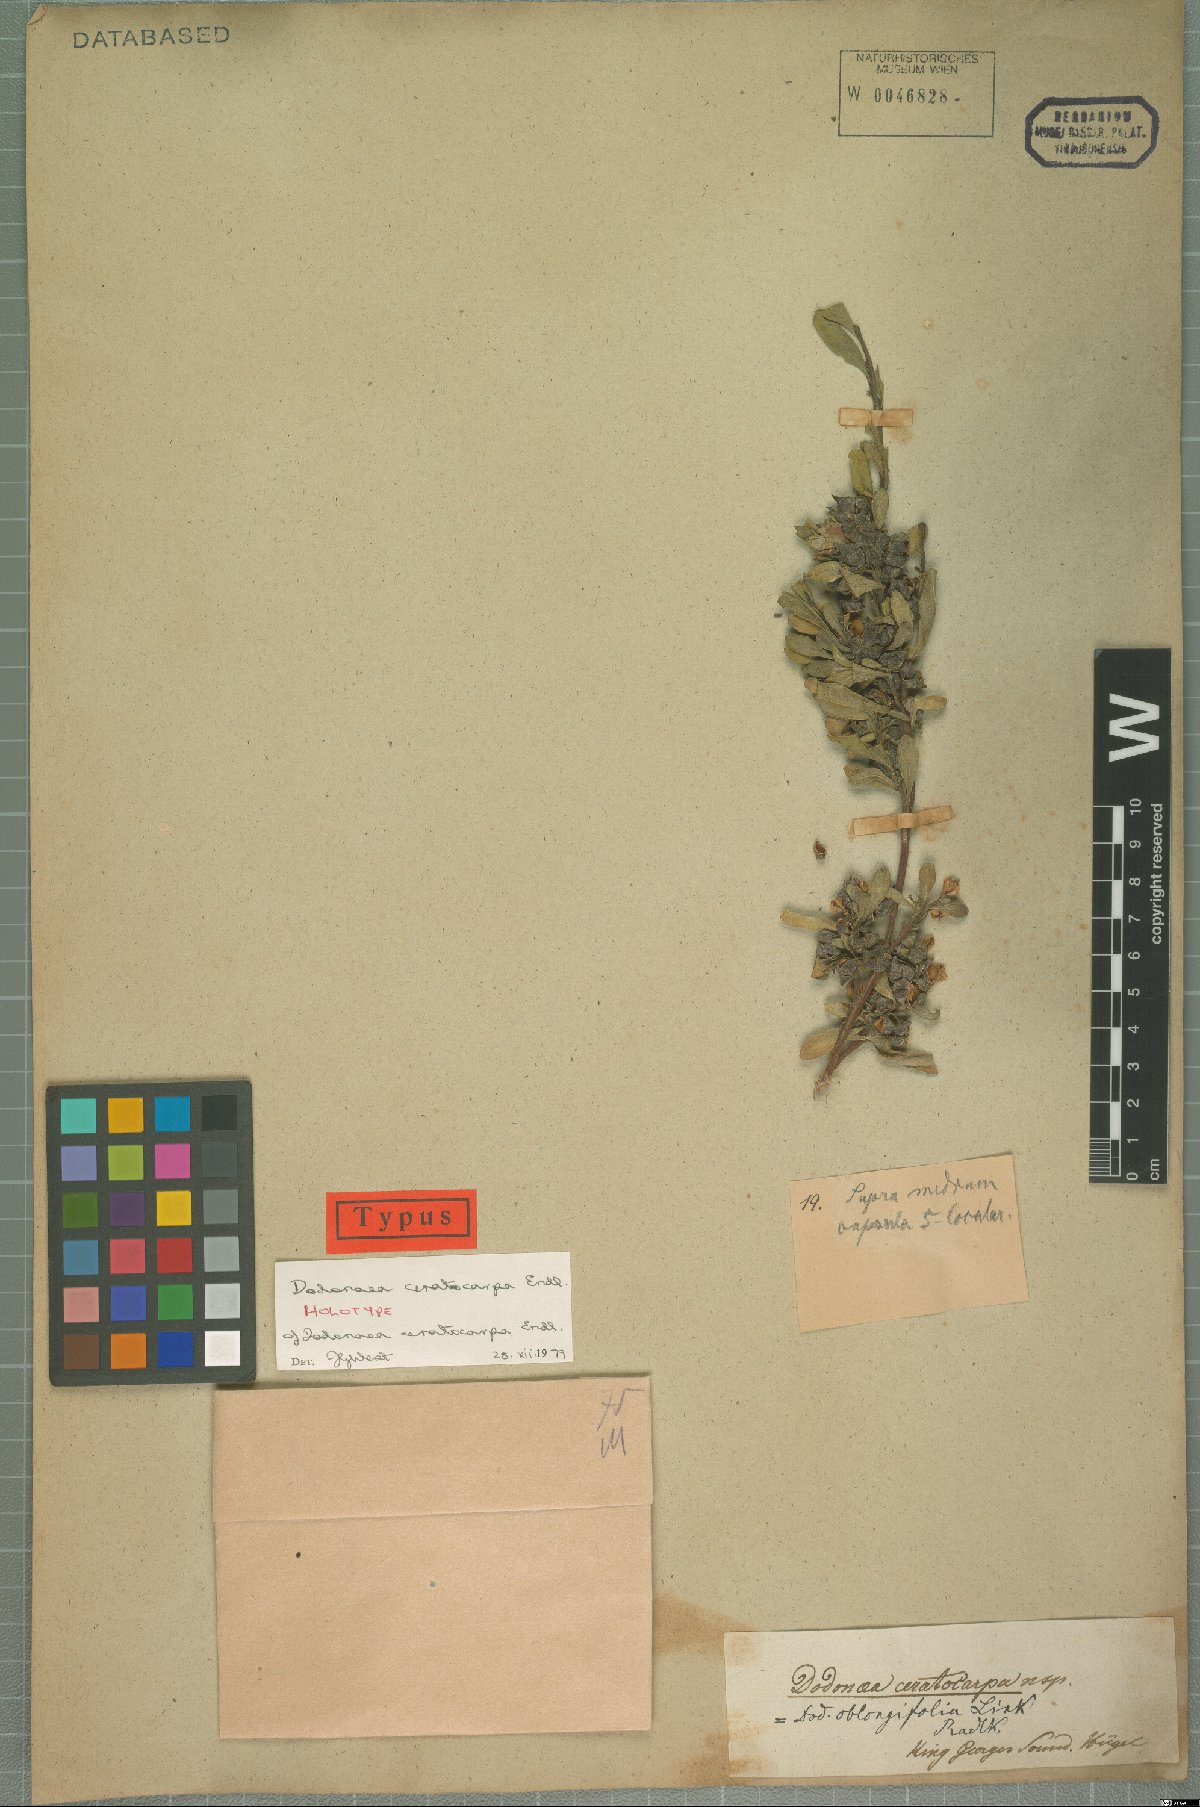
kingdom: Plantae
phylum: Tracheophyta
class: Magnoliopsida
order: Sapindales
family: Sapindaceae
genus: Dodonaea
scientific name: Dodonaea ceratocarpa
